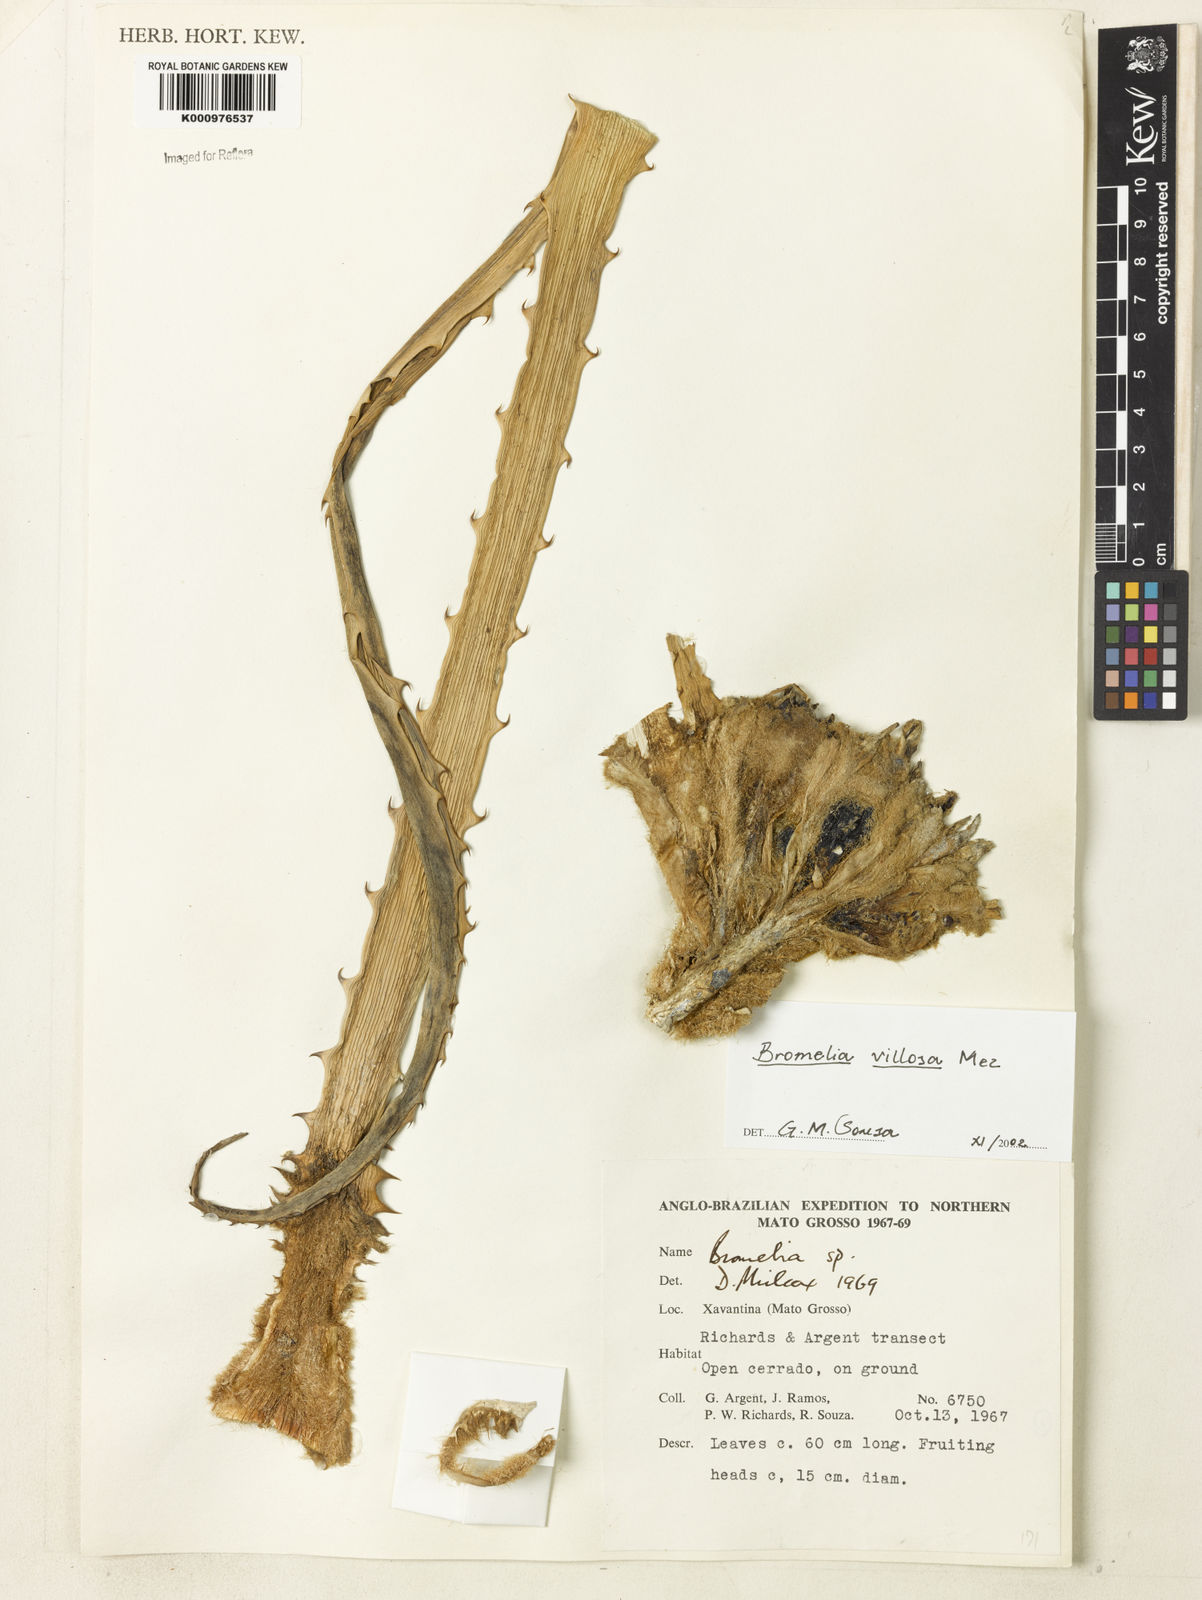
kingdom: Plantae
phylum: Tracheophyta
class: Liliopsida
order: Poales
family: Bromeliaceae
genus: Bromelia
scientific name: Bromelia villosa
